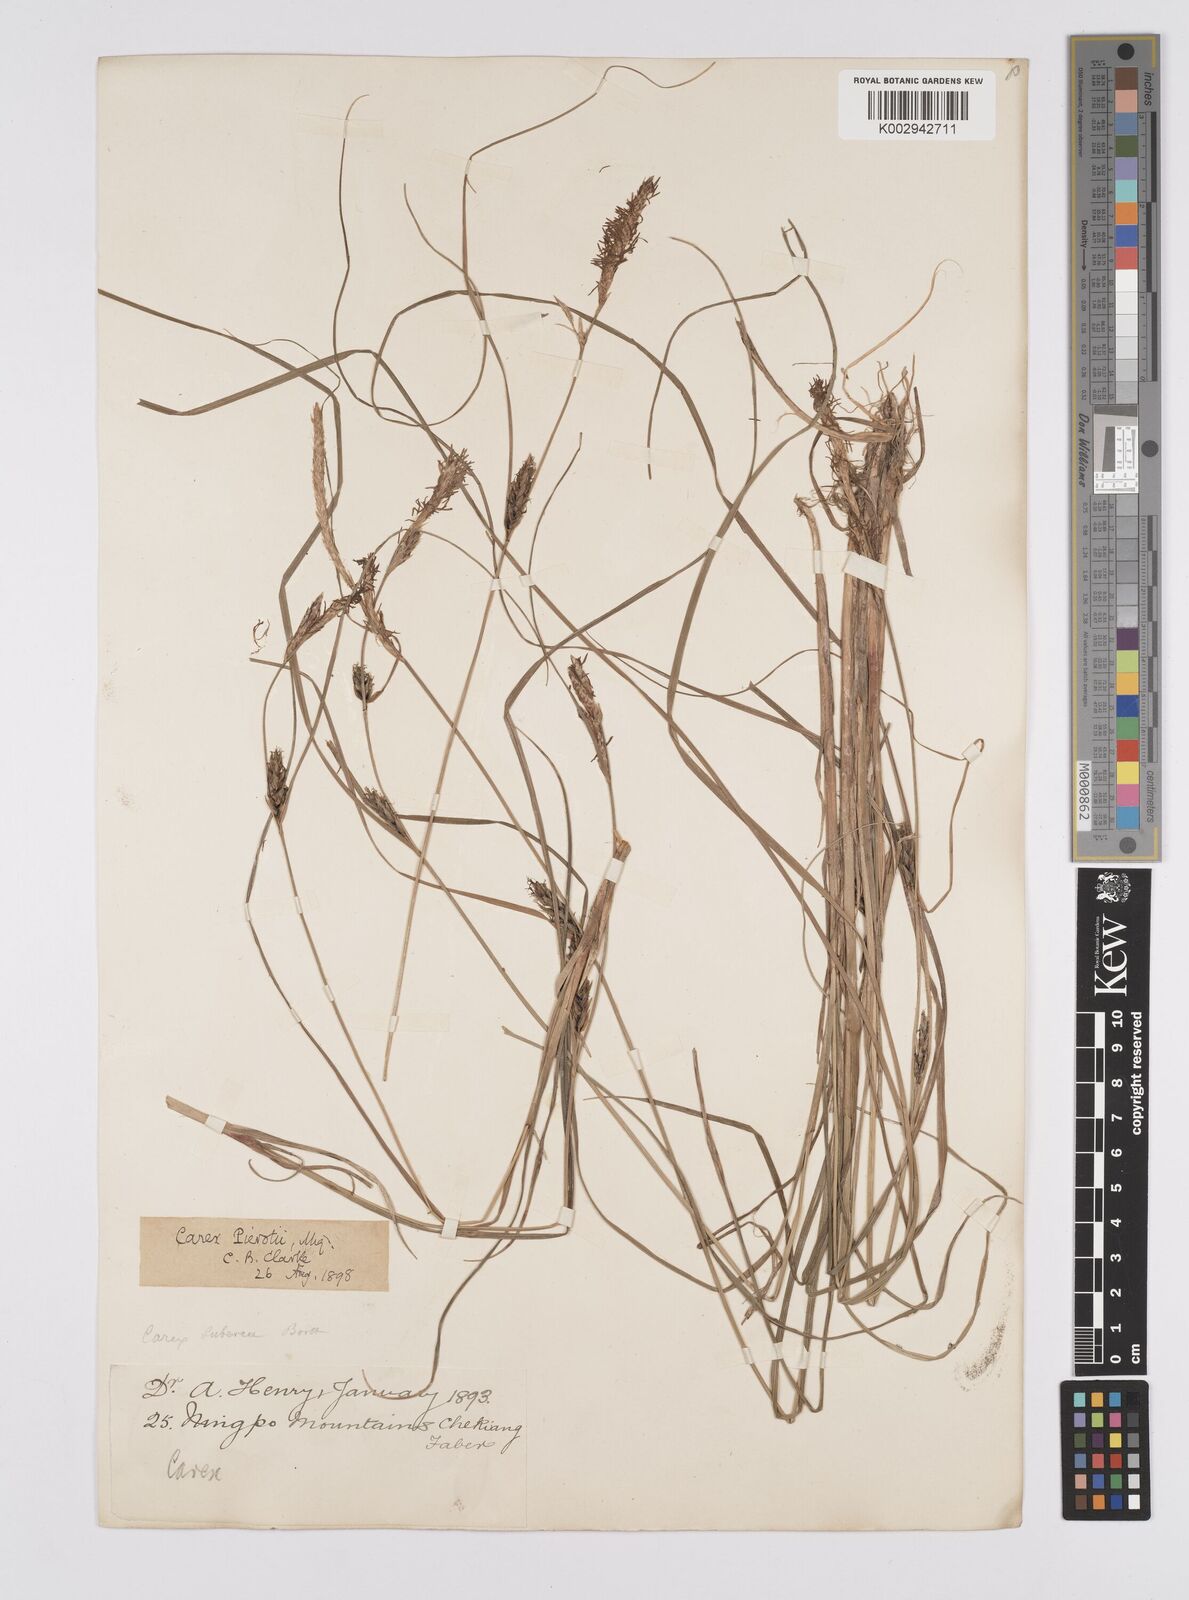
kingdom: Plantae
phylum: Tracheophyta
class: Liliopsida
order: Poales
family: Cyperaceae
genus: Carex
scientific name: Carex scabrifolia
